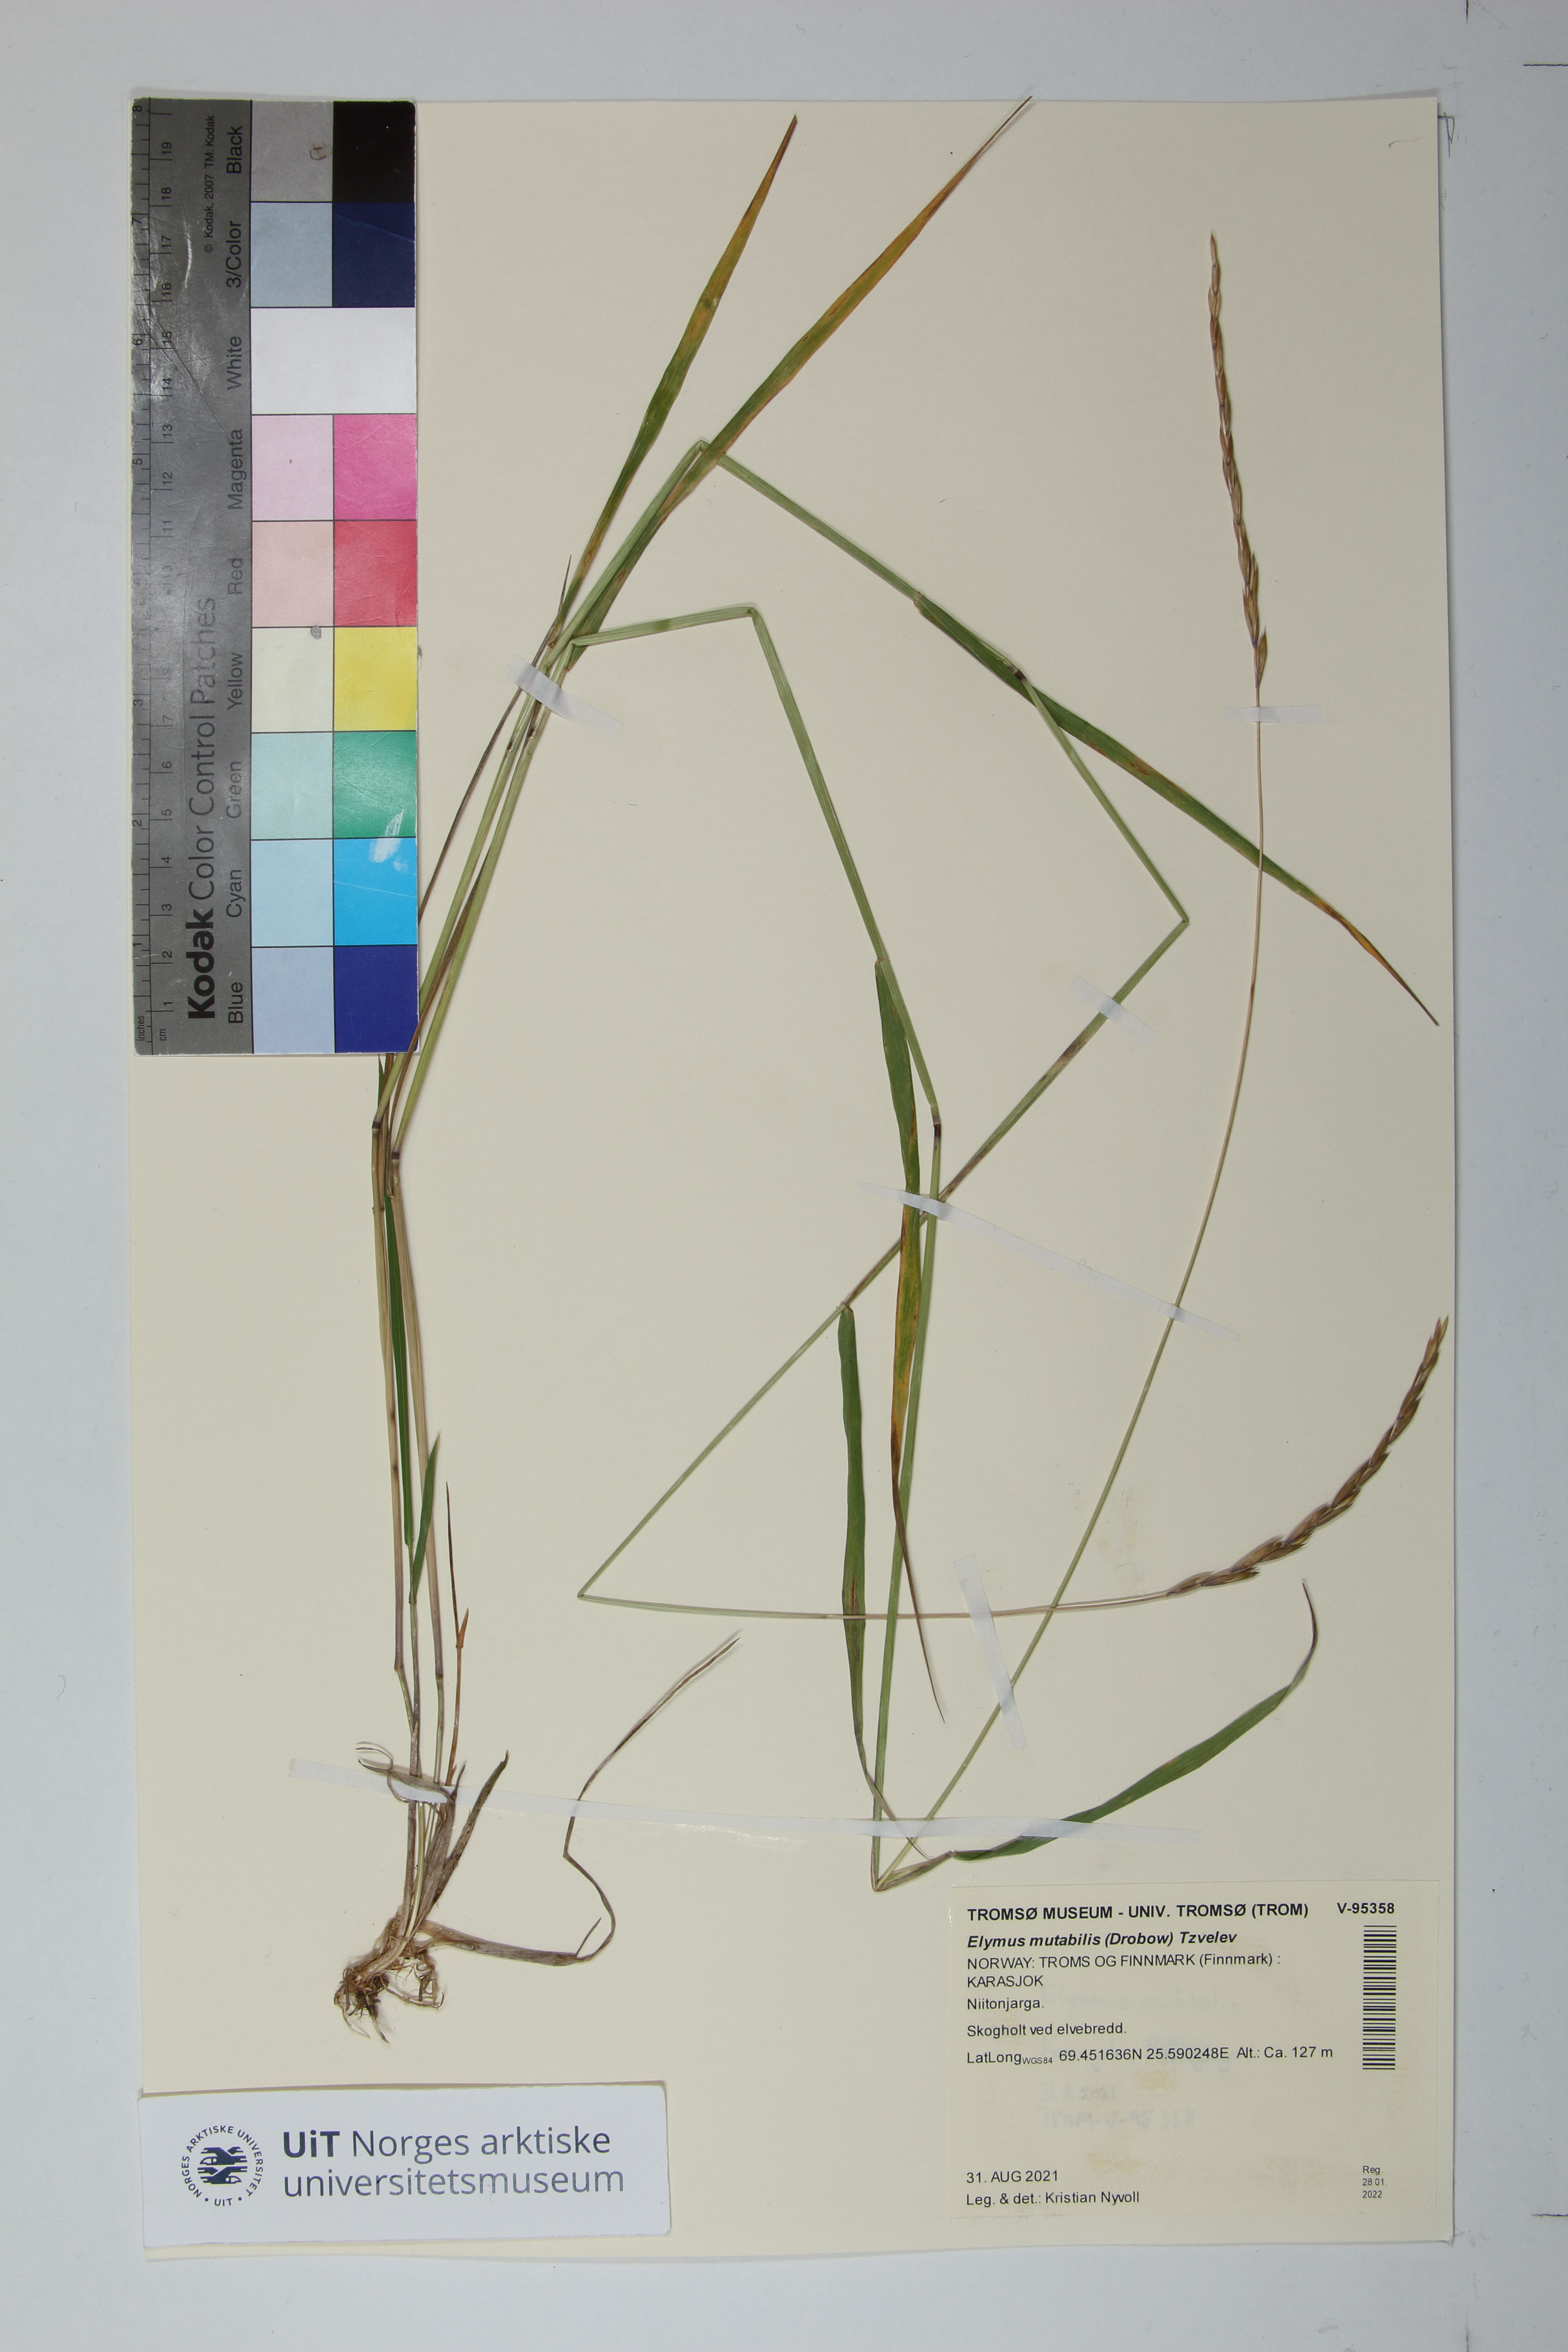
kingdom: Plantae
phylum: Tracheophyta
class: Liliopsida
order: Poales
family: Poaceae
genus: Elymus
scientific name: Elymus mutabilis
